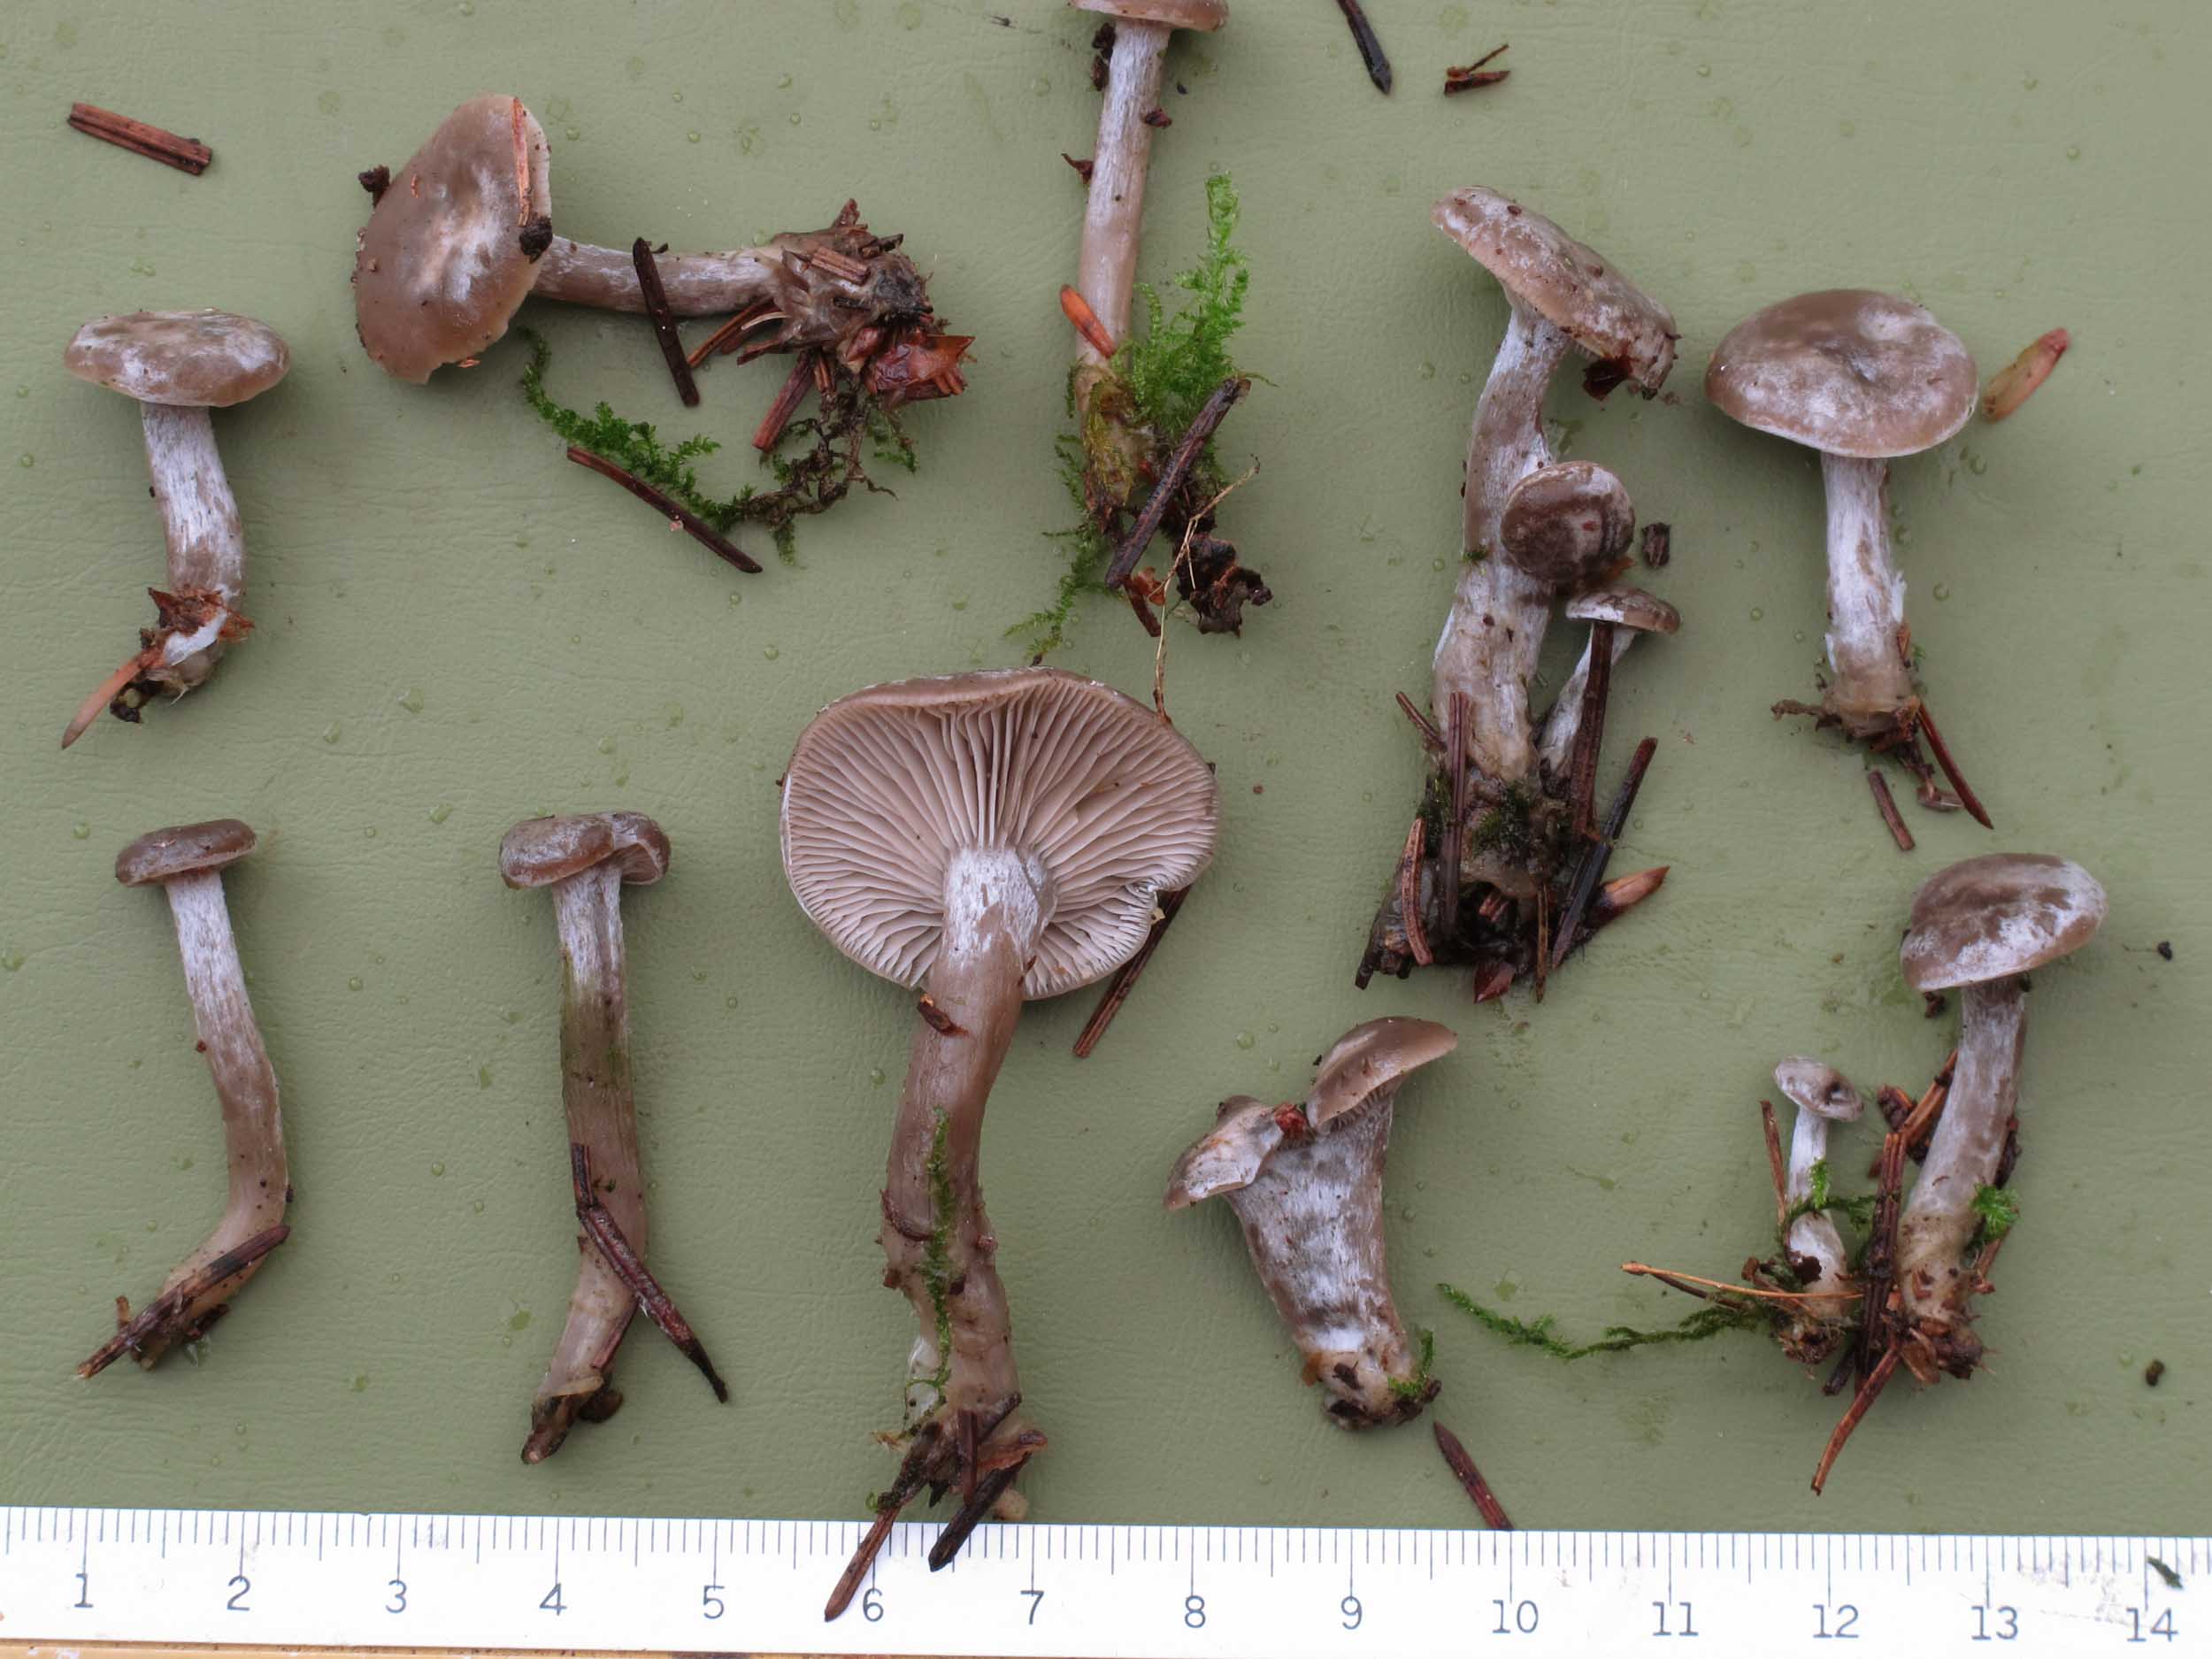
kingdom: Fungi
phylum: Basidiomycota
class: Agaricomycetes
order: Agaricales
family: Tricholomataceae
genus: Clitocybe
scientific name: Clitocybe vibecina
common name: randstribet tragthat
